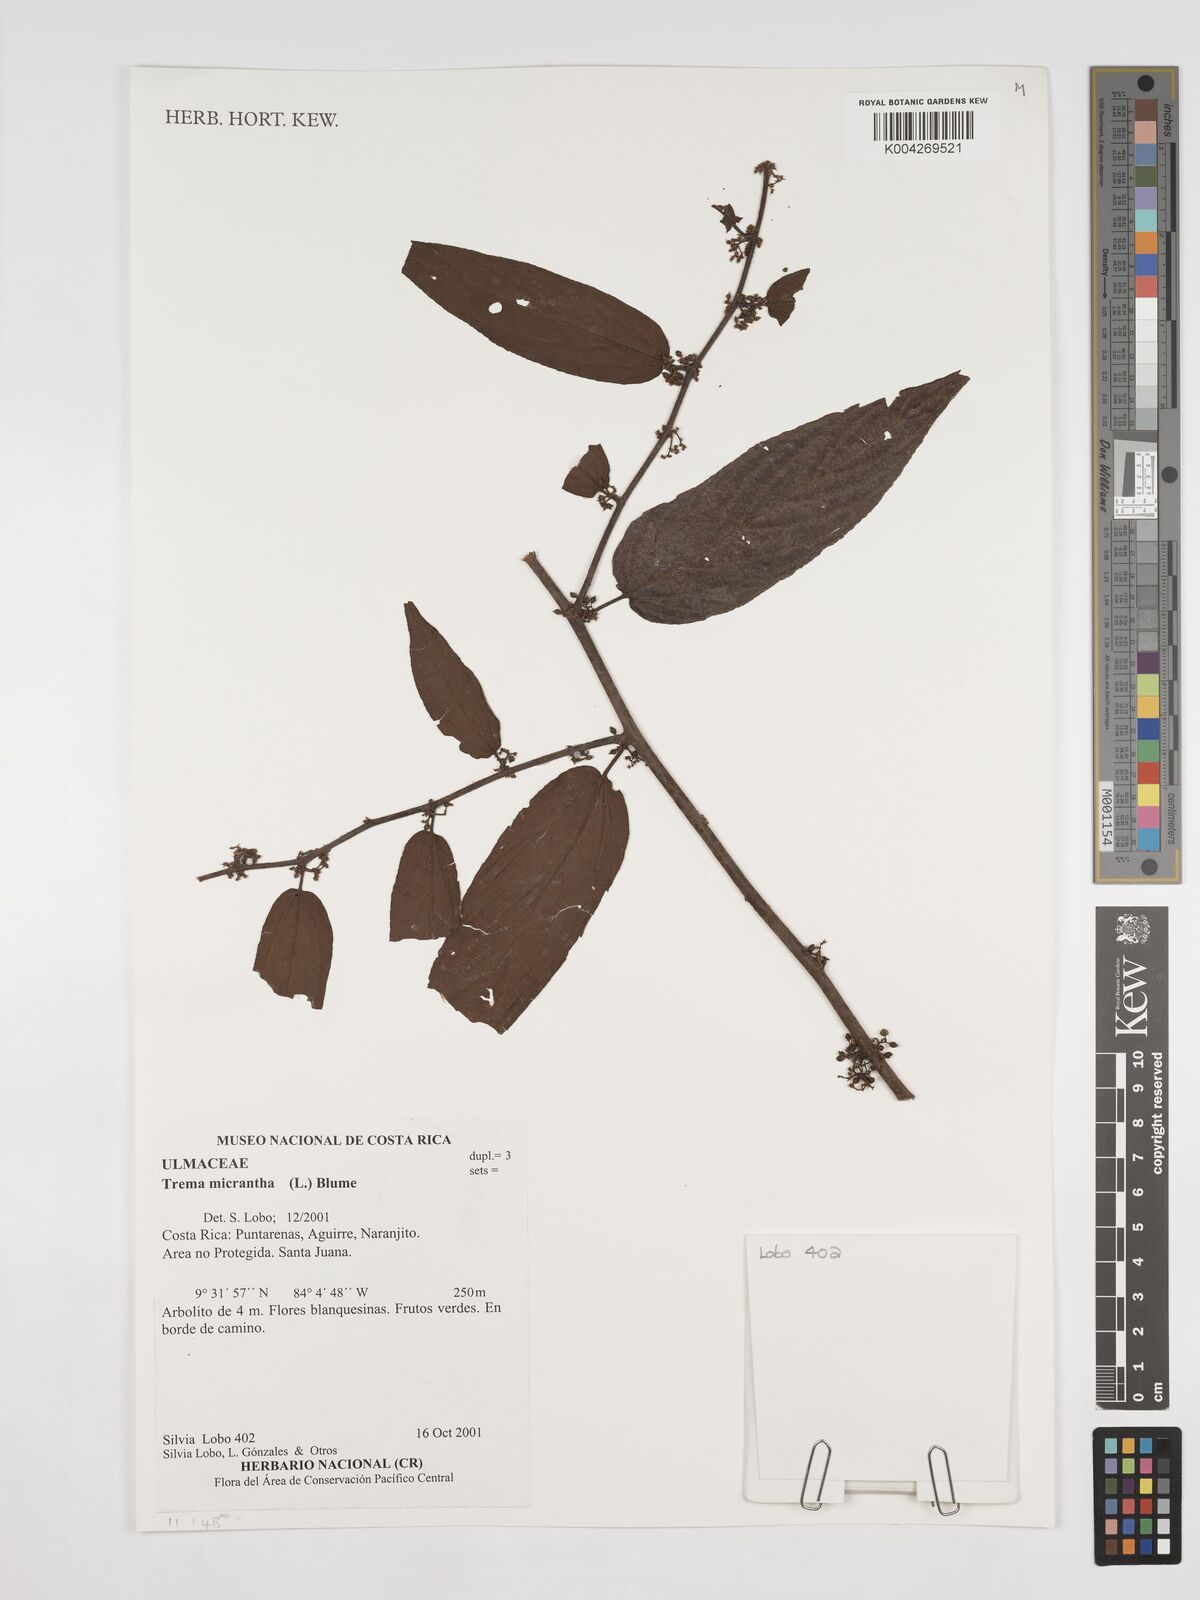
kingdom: Plantae
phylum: Tracheophyta
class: Magnoliopsida
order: Rosales
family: Cannabaceae
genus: Trema
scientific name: Trema micranthum
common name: Jamaican nettletree
